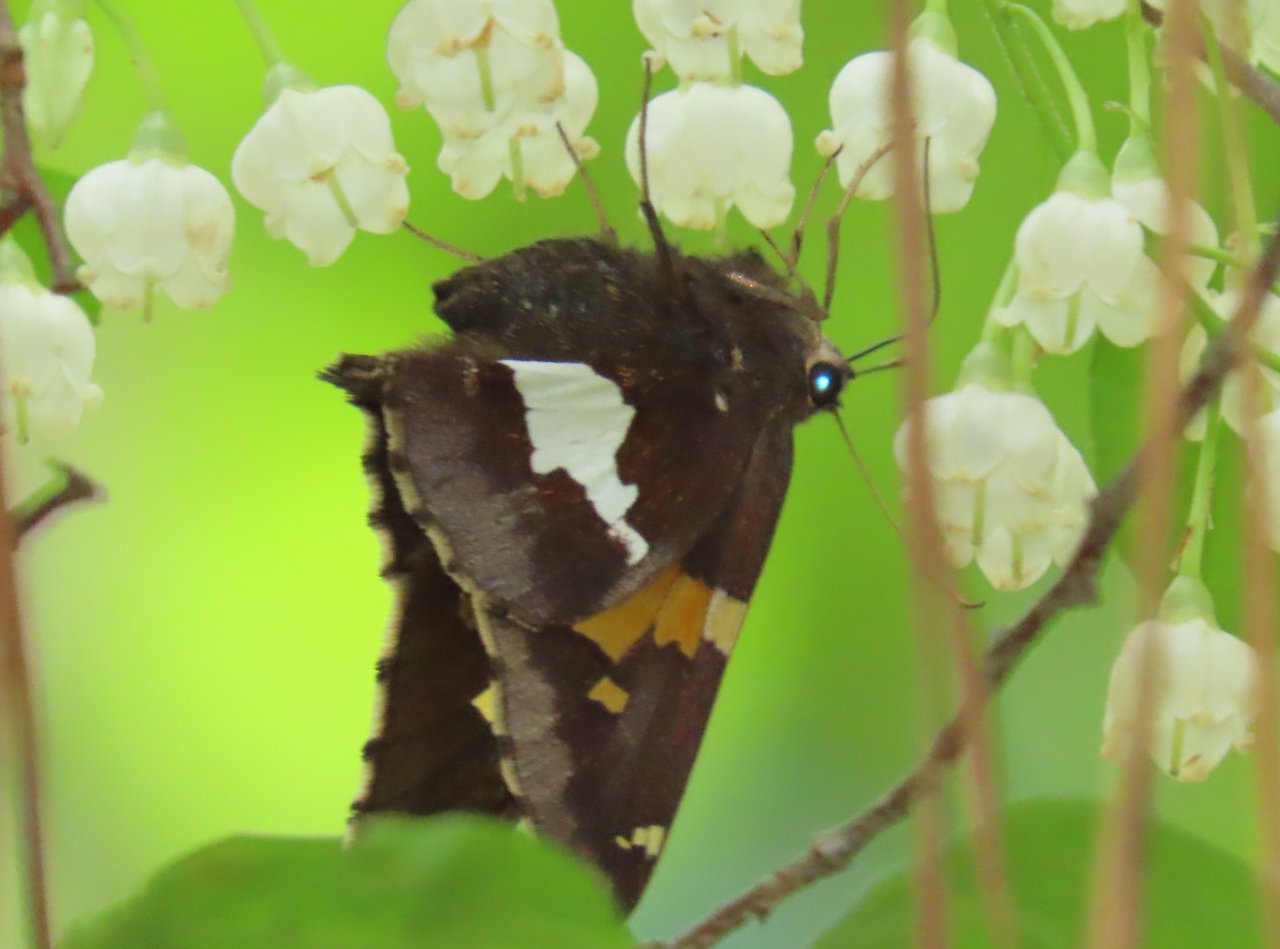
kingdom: Animalia
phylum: Arthropoda
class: Insecta
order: Lepidoptera
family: Hesperiidae
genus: Epargyreus
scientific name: Epargyreus clarus
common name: Silver-spotted Skipper
